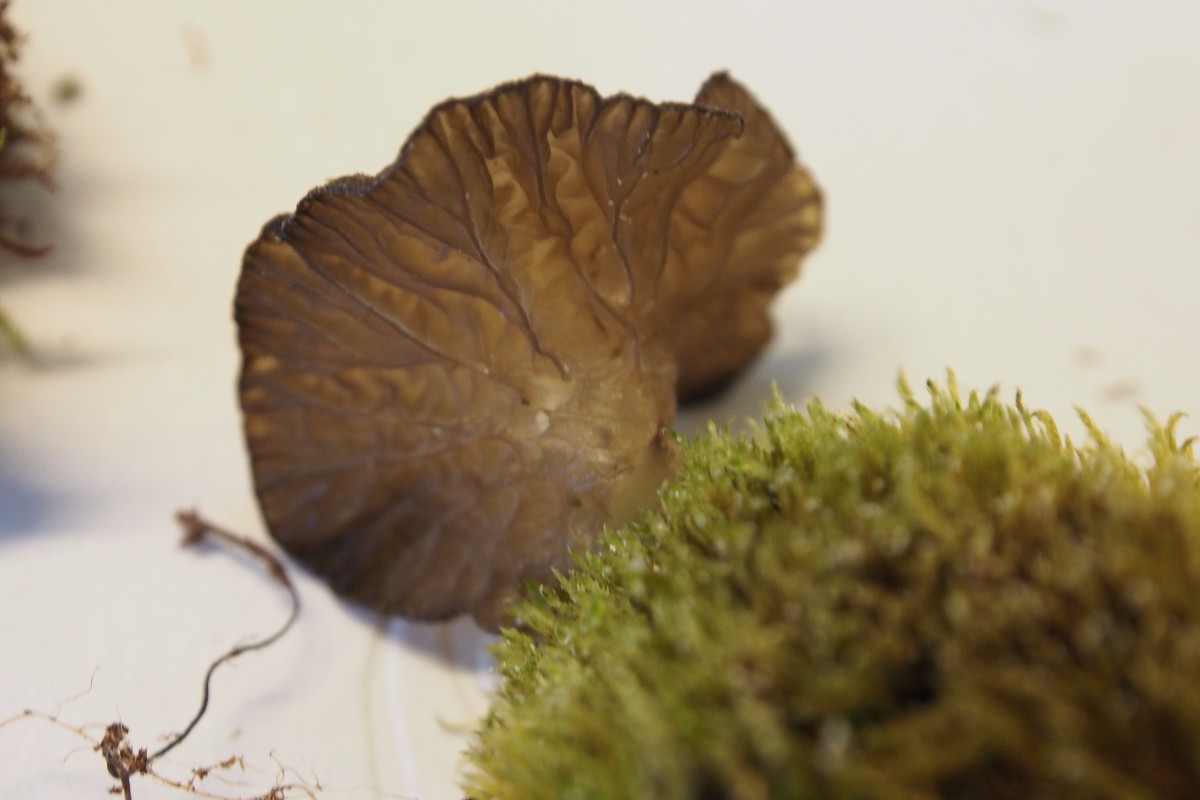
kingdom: Fungi
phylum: Basidiomycota
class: Agaricomycetes
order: Agaricales
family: Hygrophoraceae
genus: Arrhenia
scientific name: Arrhenia lobata
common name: siddende fontænehat
